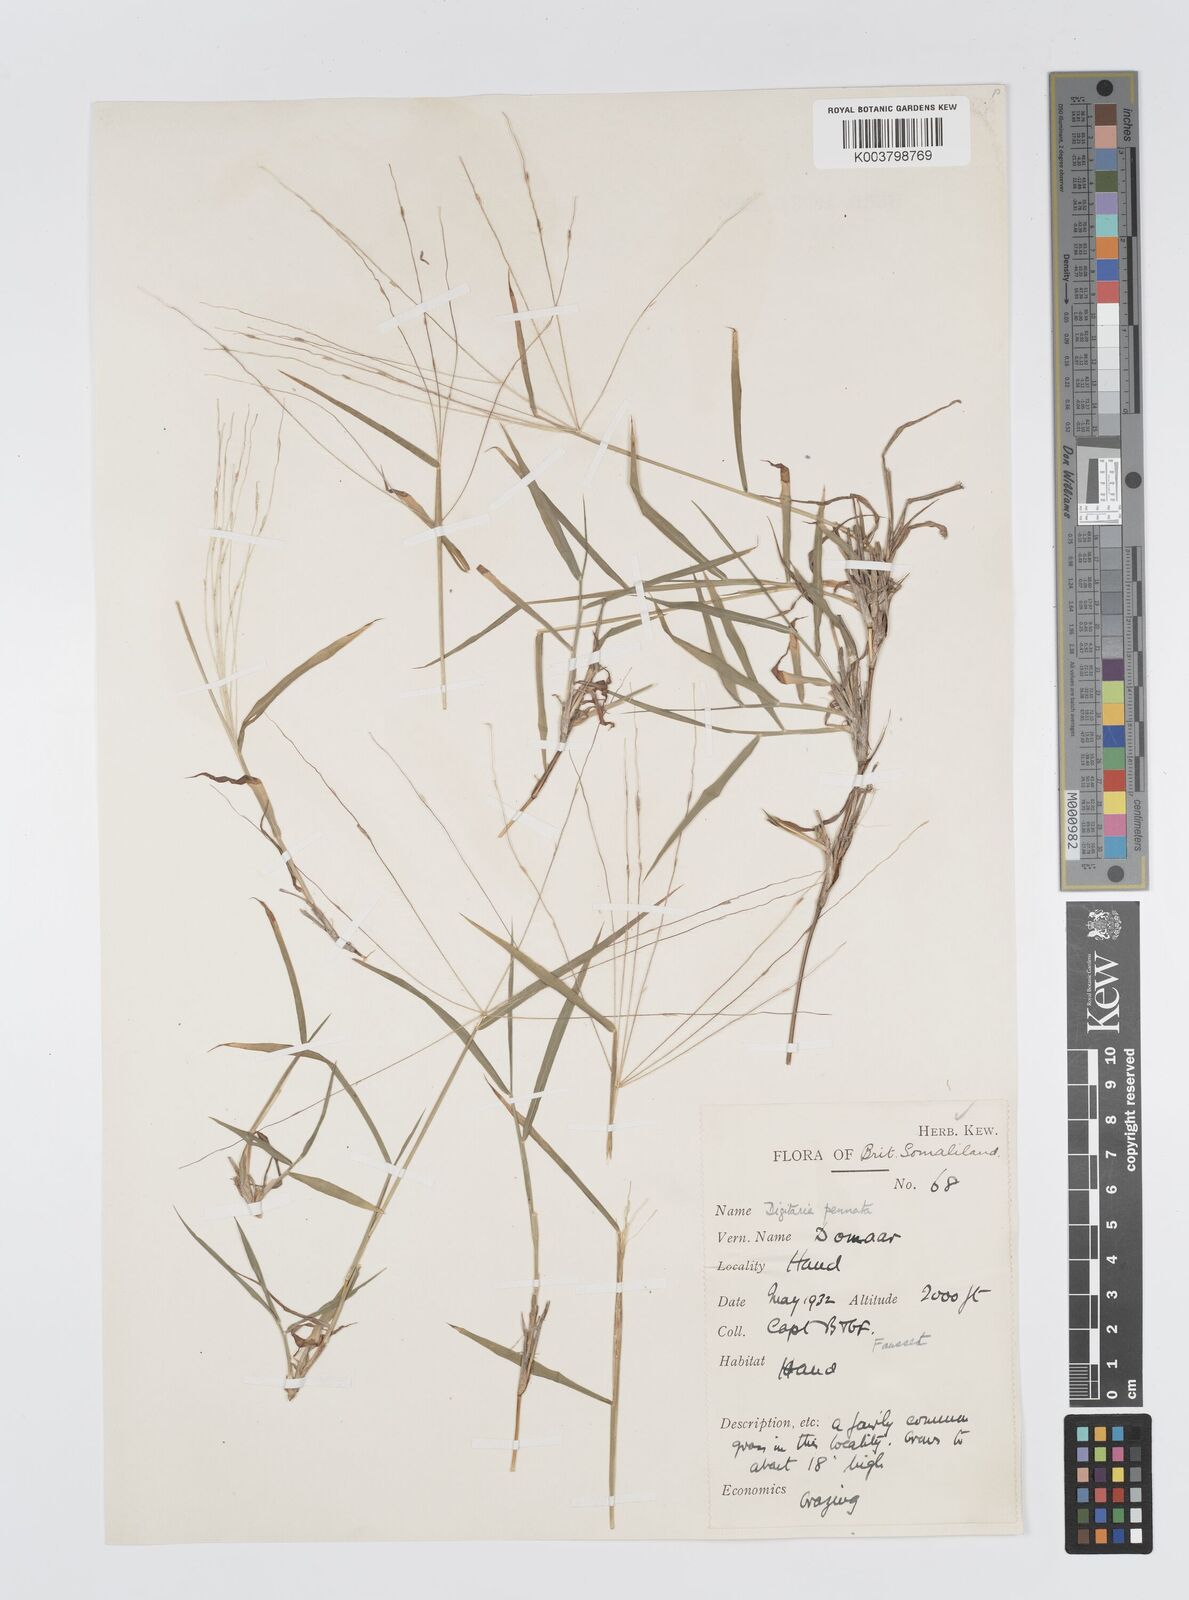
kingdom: Plantae
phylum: Tracheophyta
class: Liliopsida
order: Poales
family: Poaceae
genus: Digitaria
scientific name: Digitaria pennata
